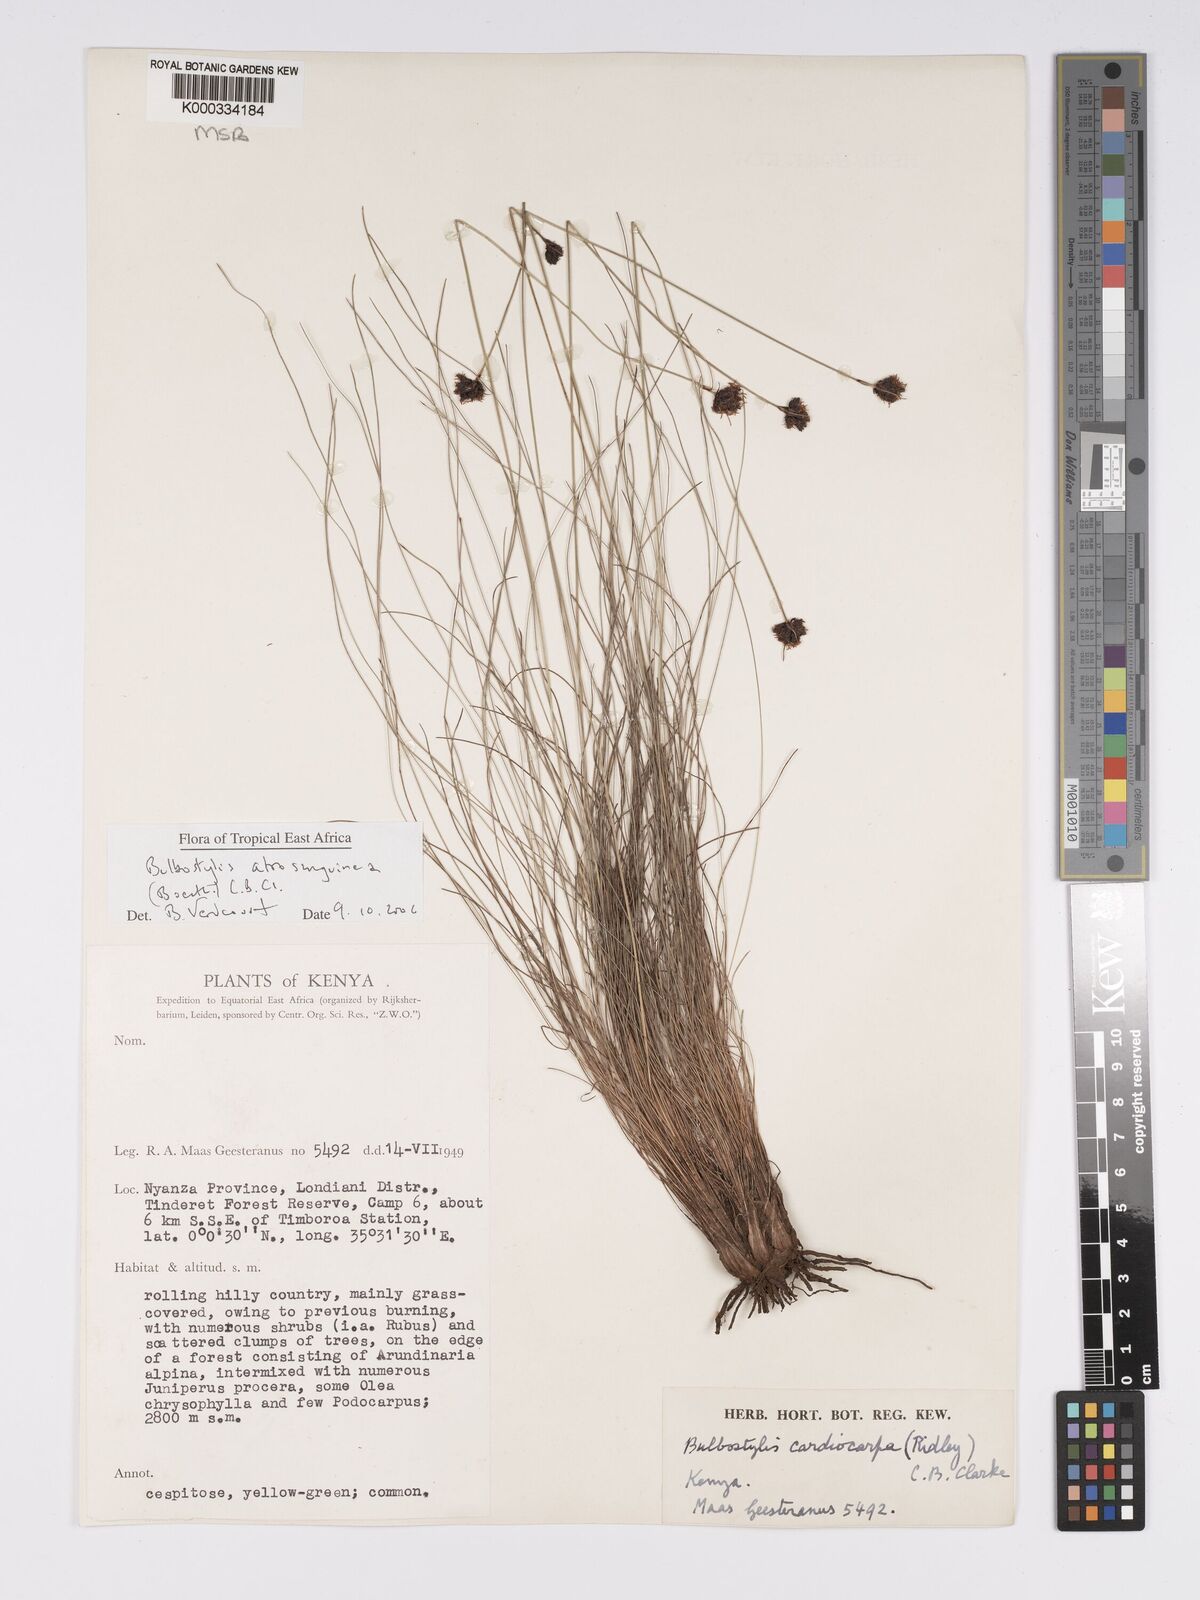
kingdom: Plantae
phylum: Tracheophyta
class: Liliopsida
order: Poales
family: Cyperaceae
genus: Bulbostylis
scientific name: Bulbostylis atrosanguinea
